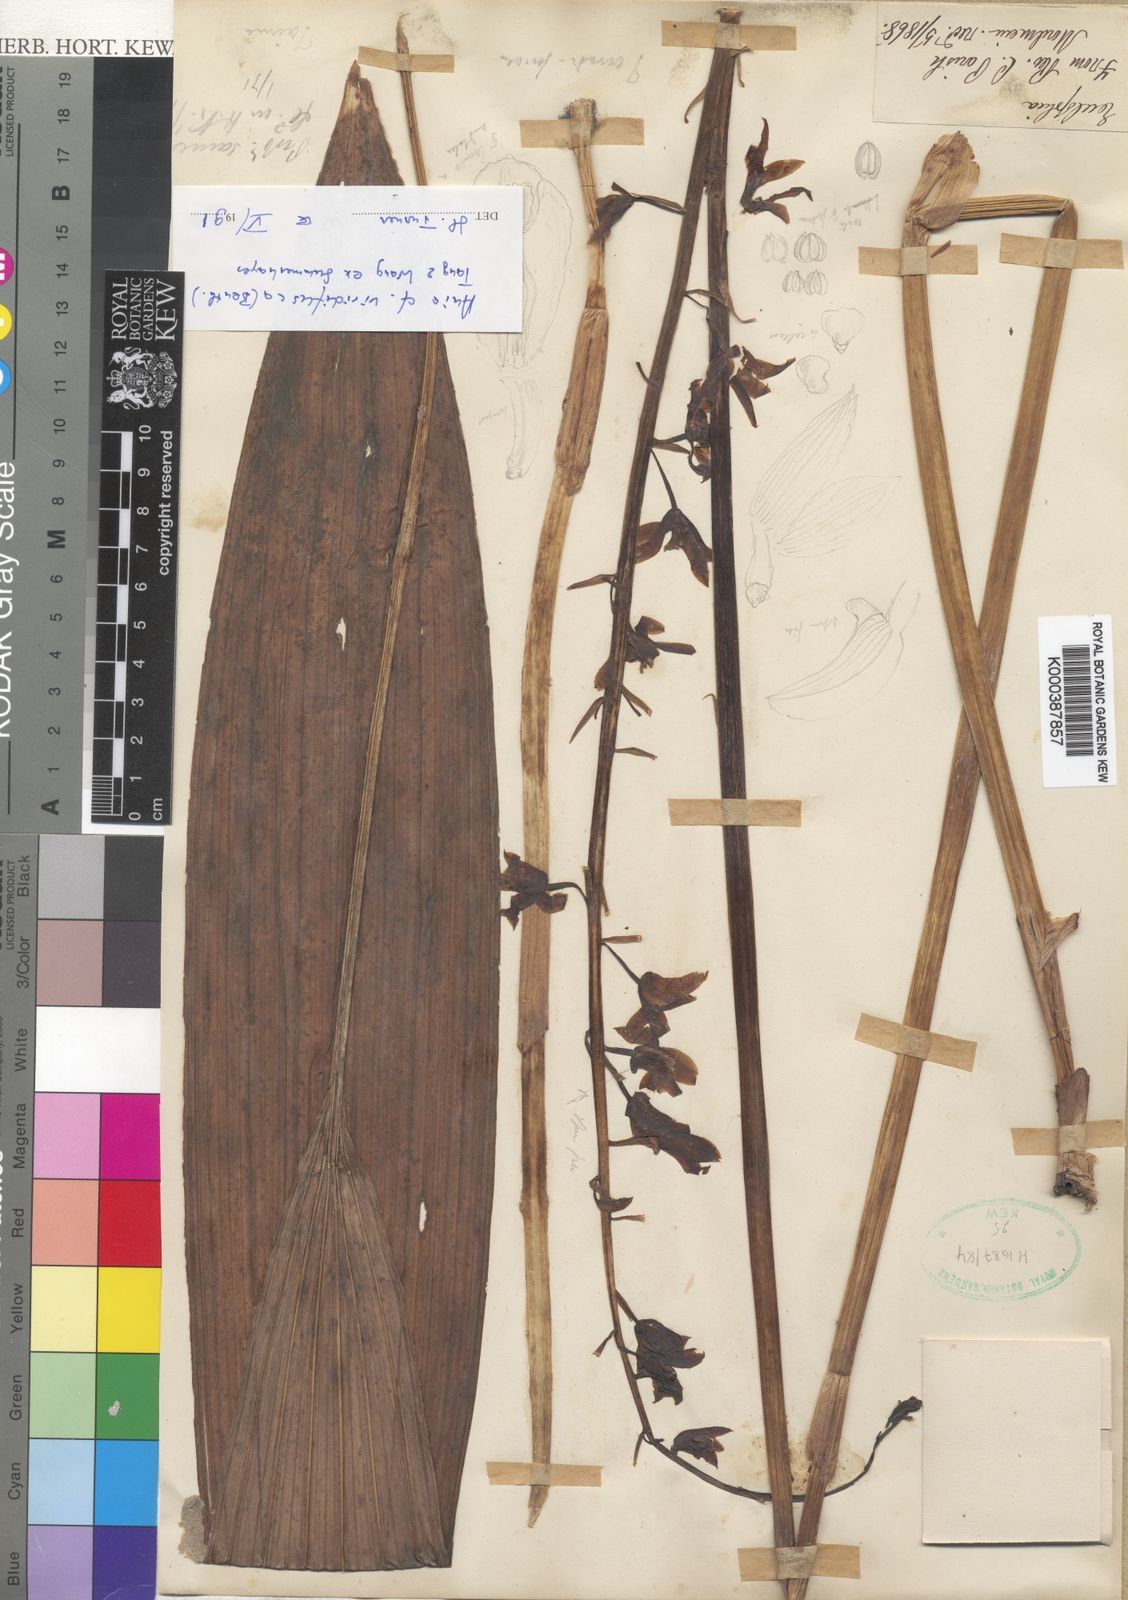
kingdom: Plantae
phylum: Tracheophyta
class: Liliopsida
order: Asparagales
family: Orchidaceae
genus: Ania
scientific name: Ania viridifusca
